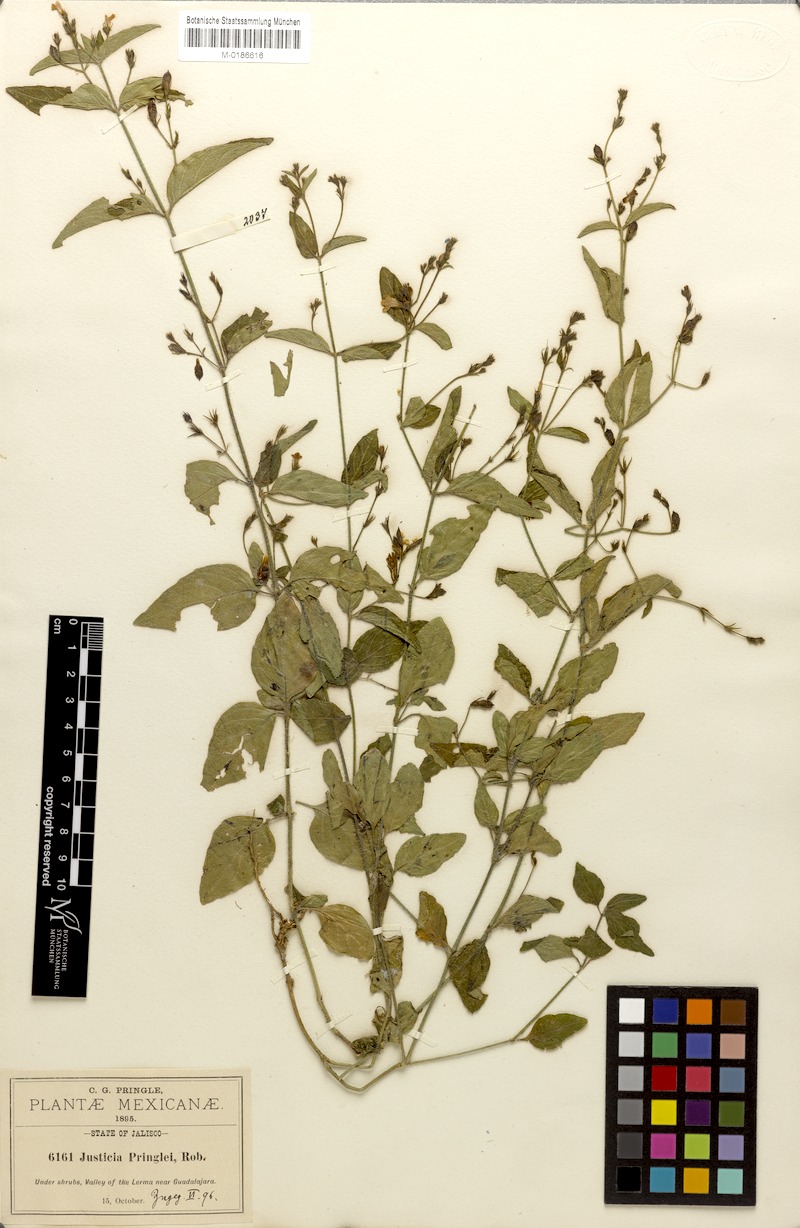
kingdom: Plantae
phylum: Tracheophyta
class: Magnoliopsida
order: Lamiales
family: Acanthaceae
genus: Justicia
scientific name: Justicia pringlei
